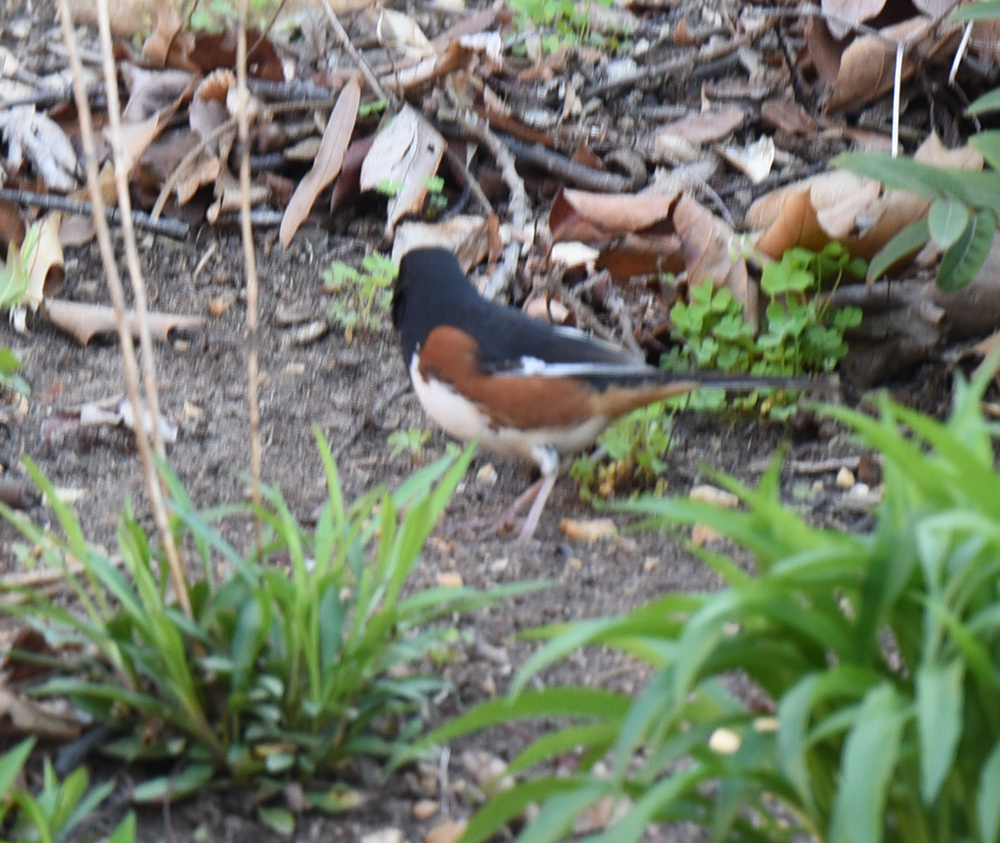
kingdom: Animalia
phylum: Chordata
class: Aves
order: Passeriformes
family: Passerellidae
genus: Pipilo
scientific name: Pipilo erythrophthalmus
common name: Eastern towhee
